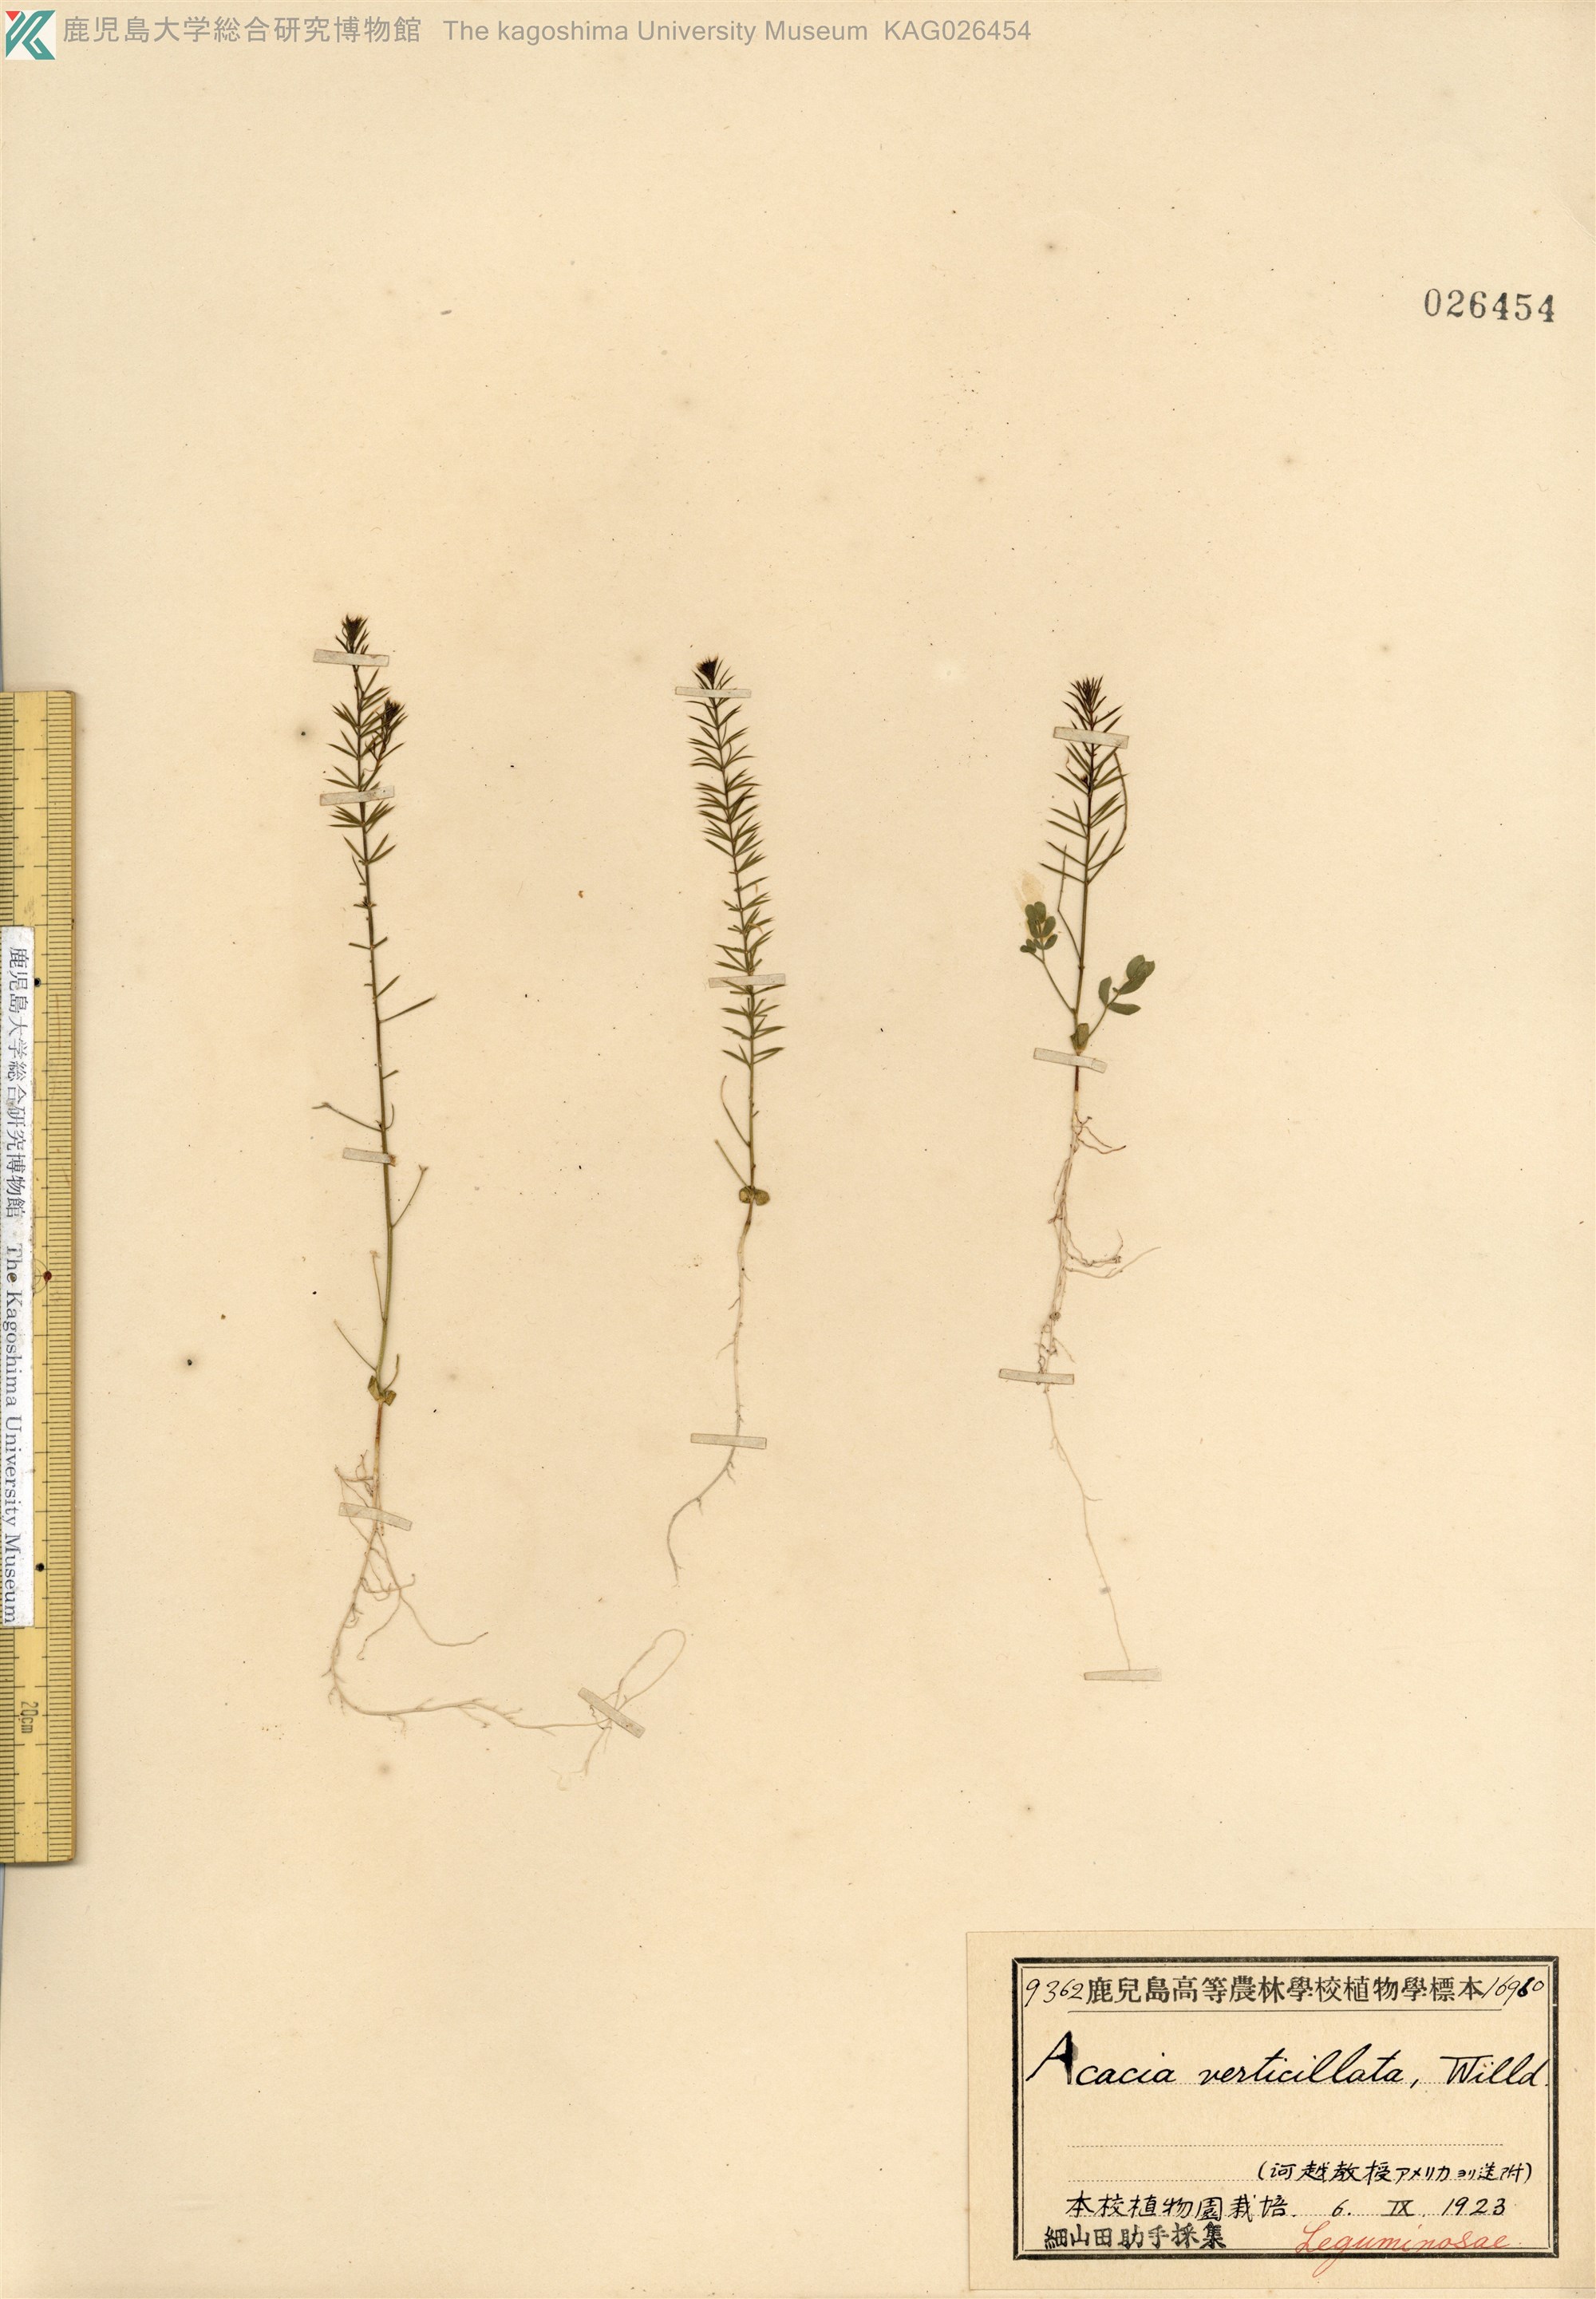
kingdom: Plantae
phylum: Tracheophyta
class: Magnoliopsida
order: Fabales
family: Fabaceae
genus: Acacia
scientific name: Acacia verticillata
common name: Prickly moses
